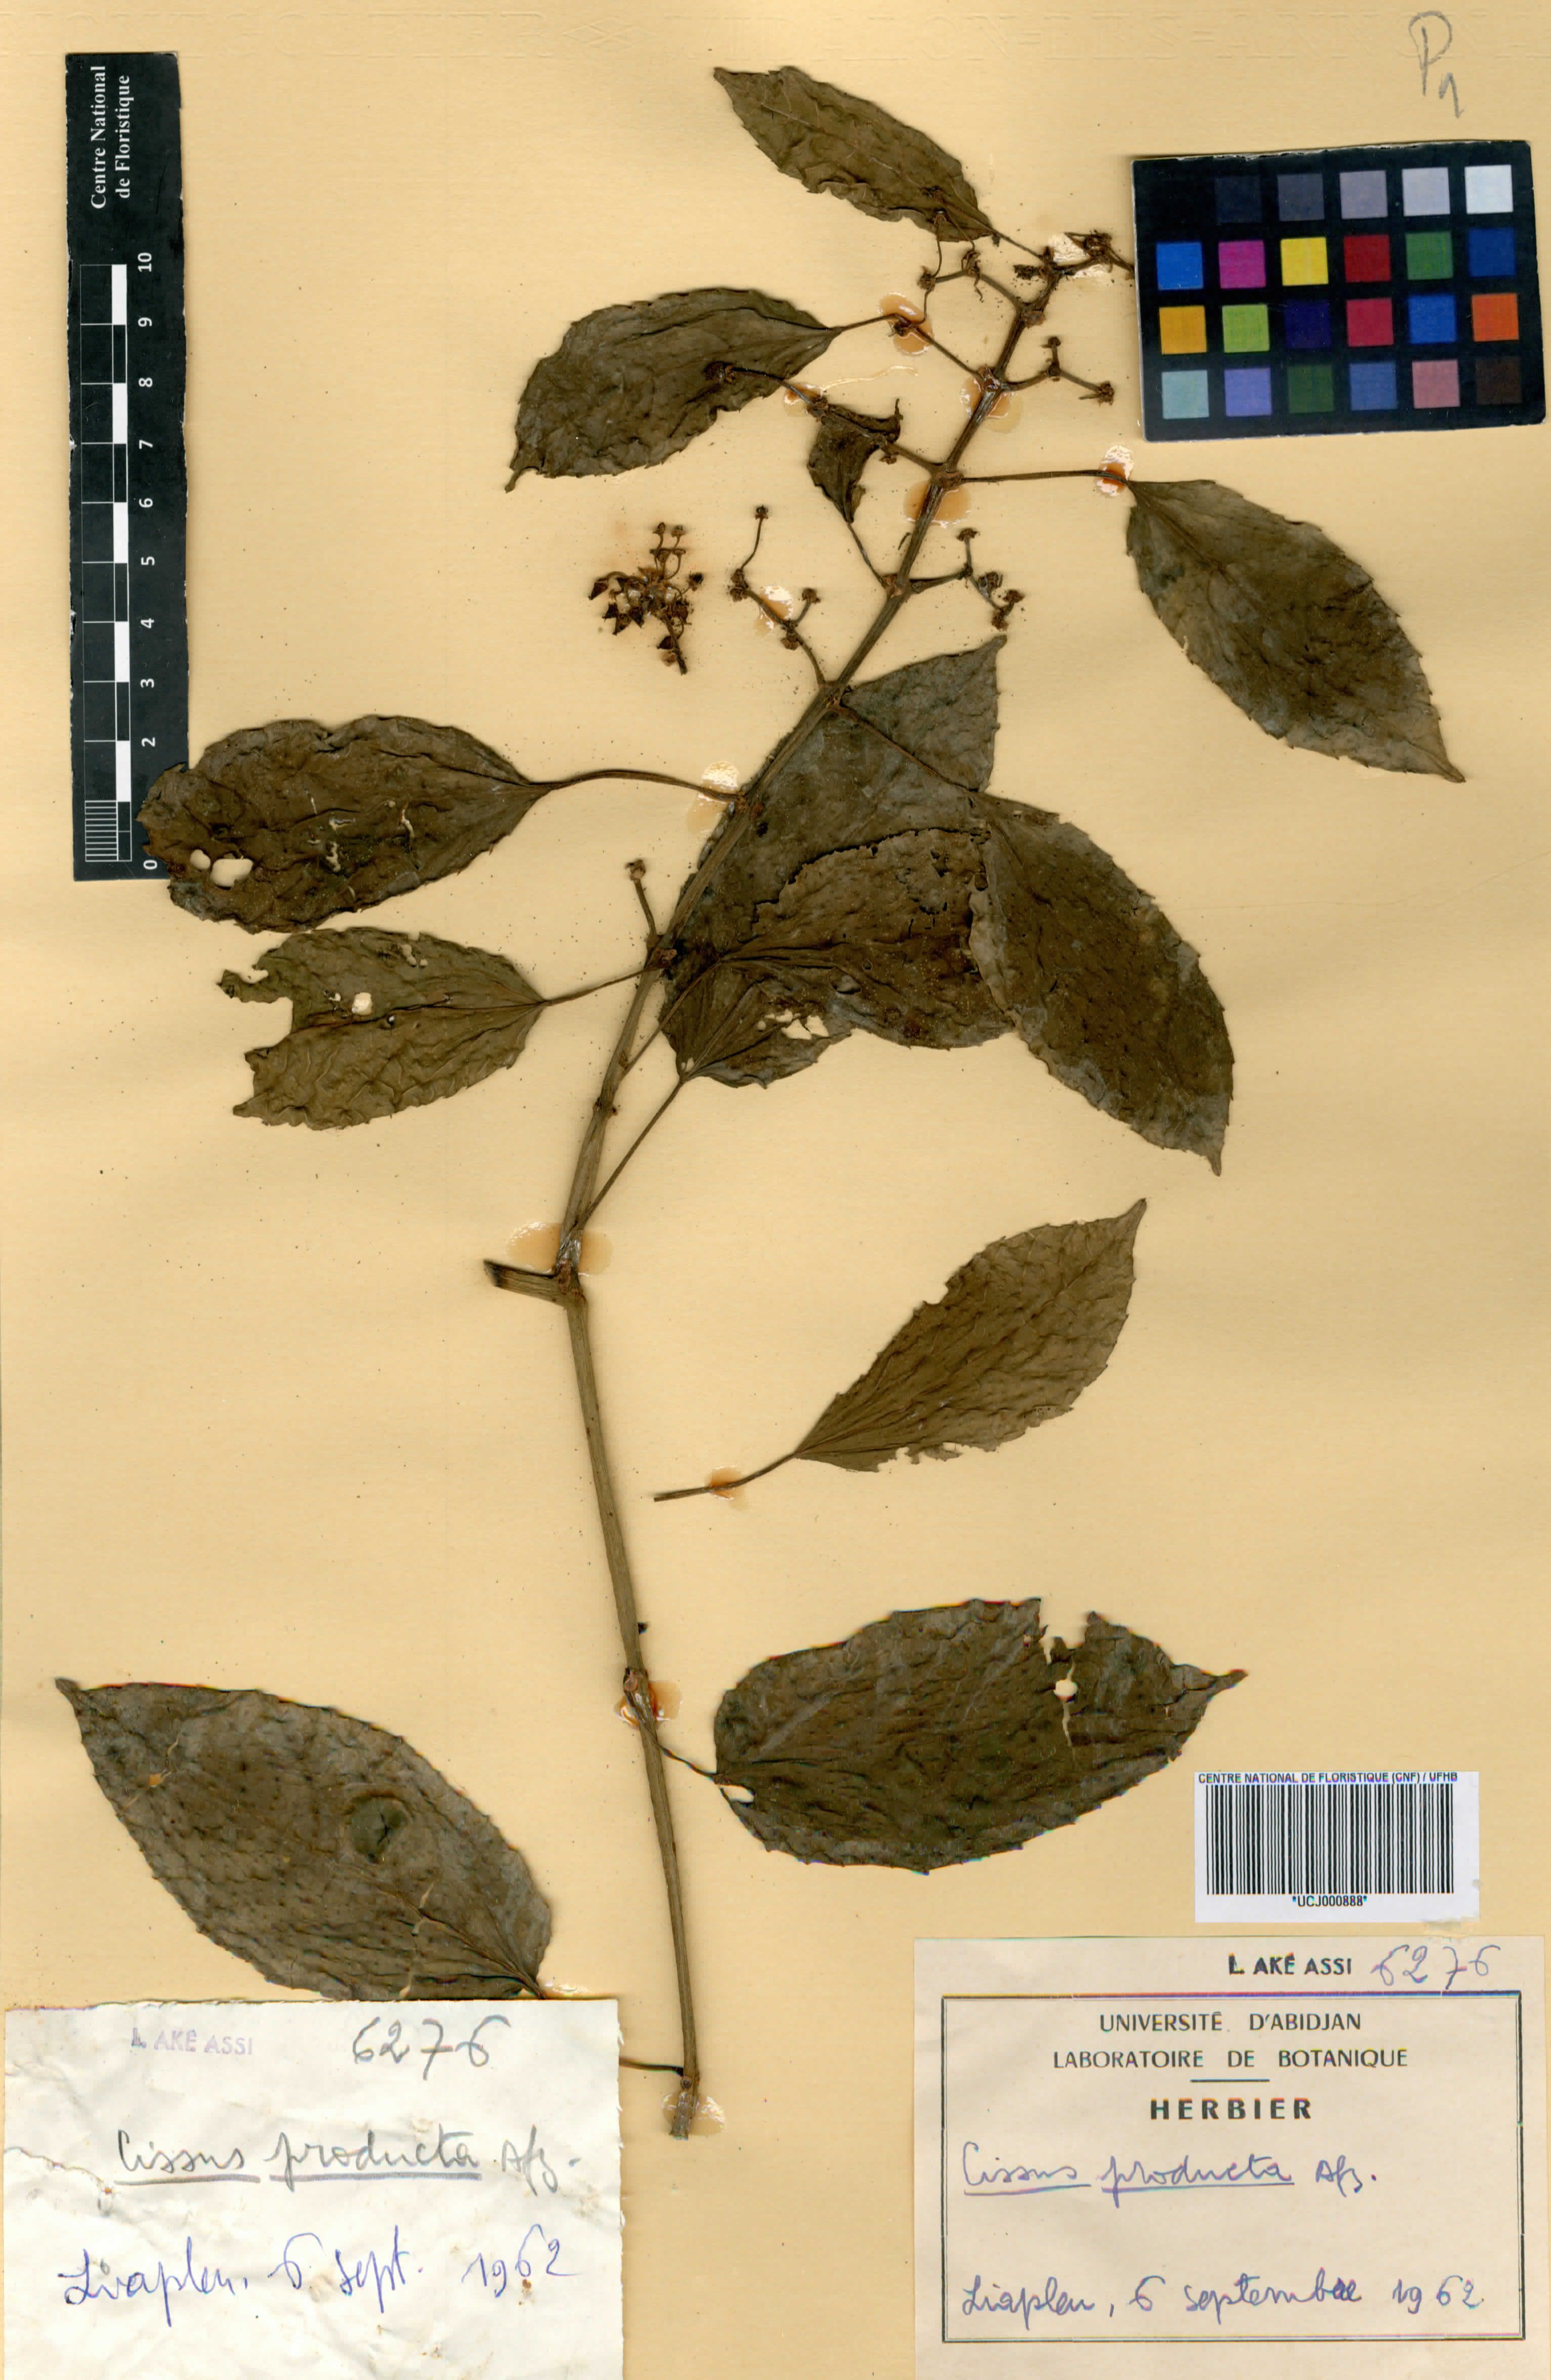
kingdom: Plantae
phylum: Tracheophyta
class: Magnoliopsida
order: Vitales
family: Vitaceae
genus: Cissus
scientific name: Cissus producta
